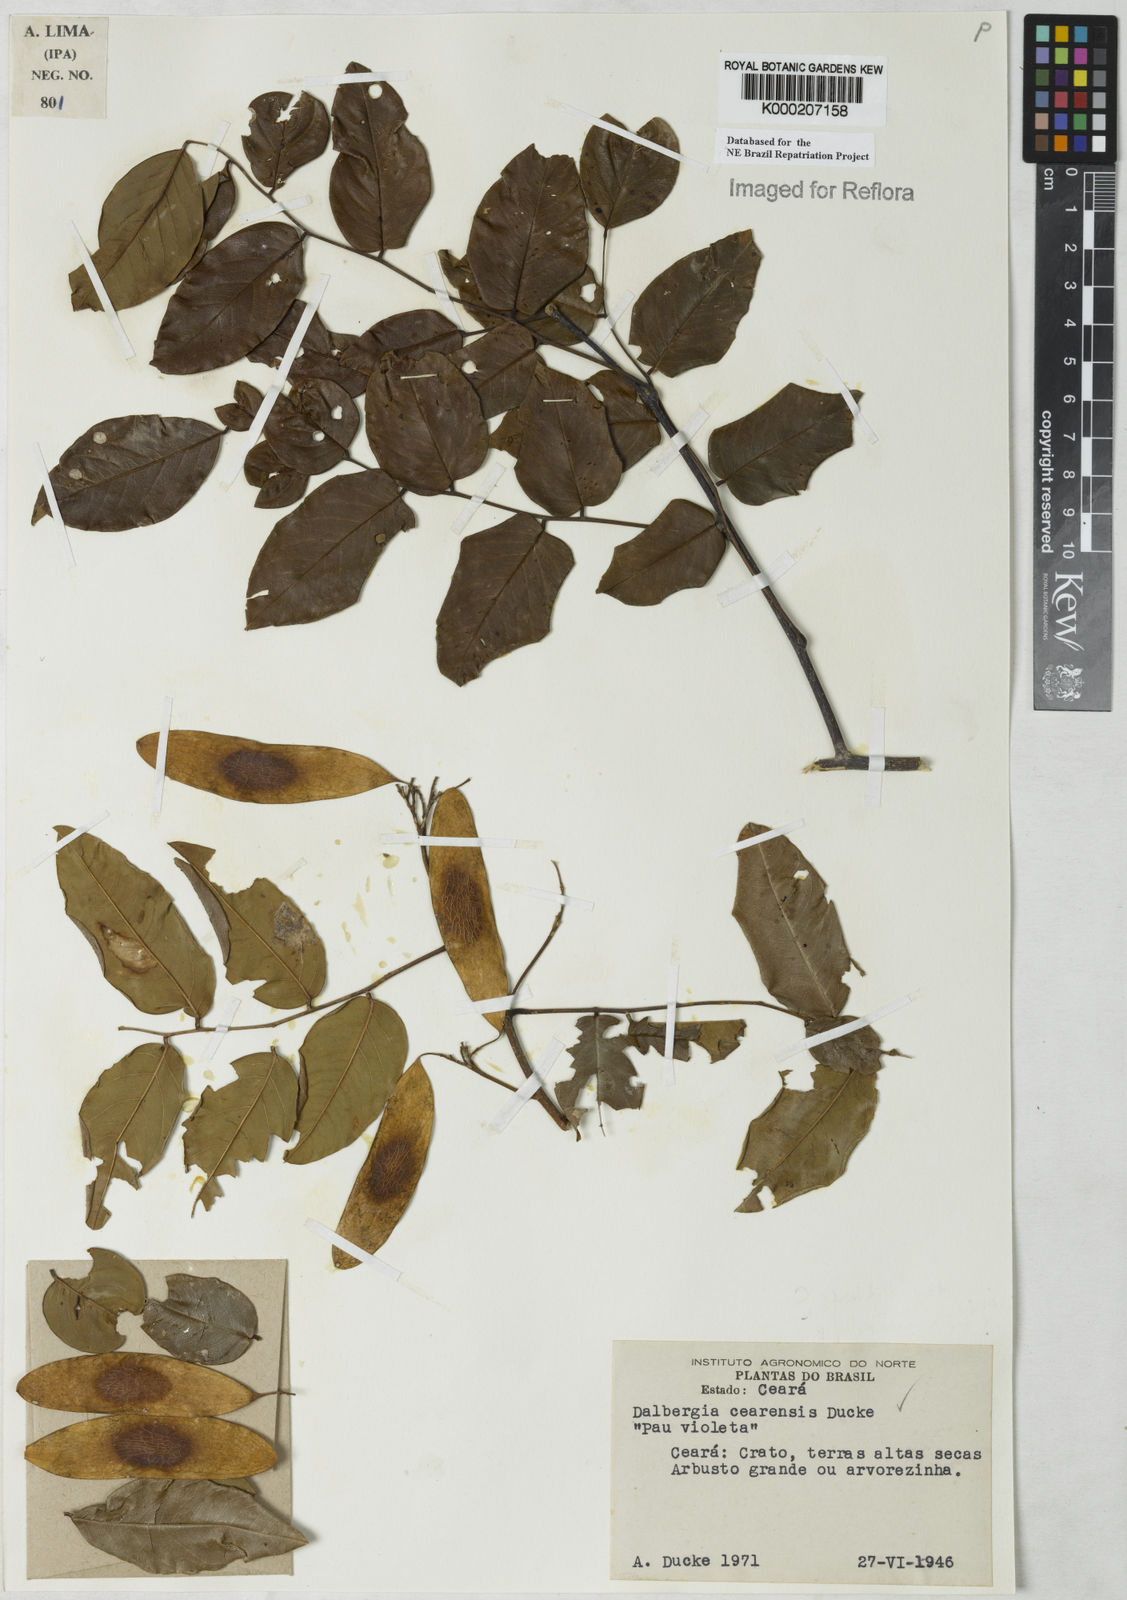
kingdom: Plantae
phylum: Tracheophyta
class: Magnoliopsida
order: Fabales
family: Fabaceae
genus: Dalbergia
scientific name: Dalbergia cearensis
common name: Brazilian-king-wood
